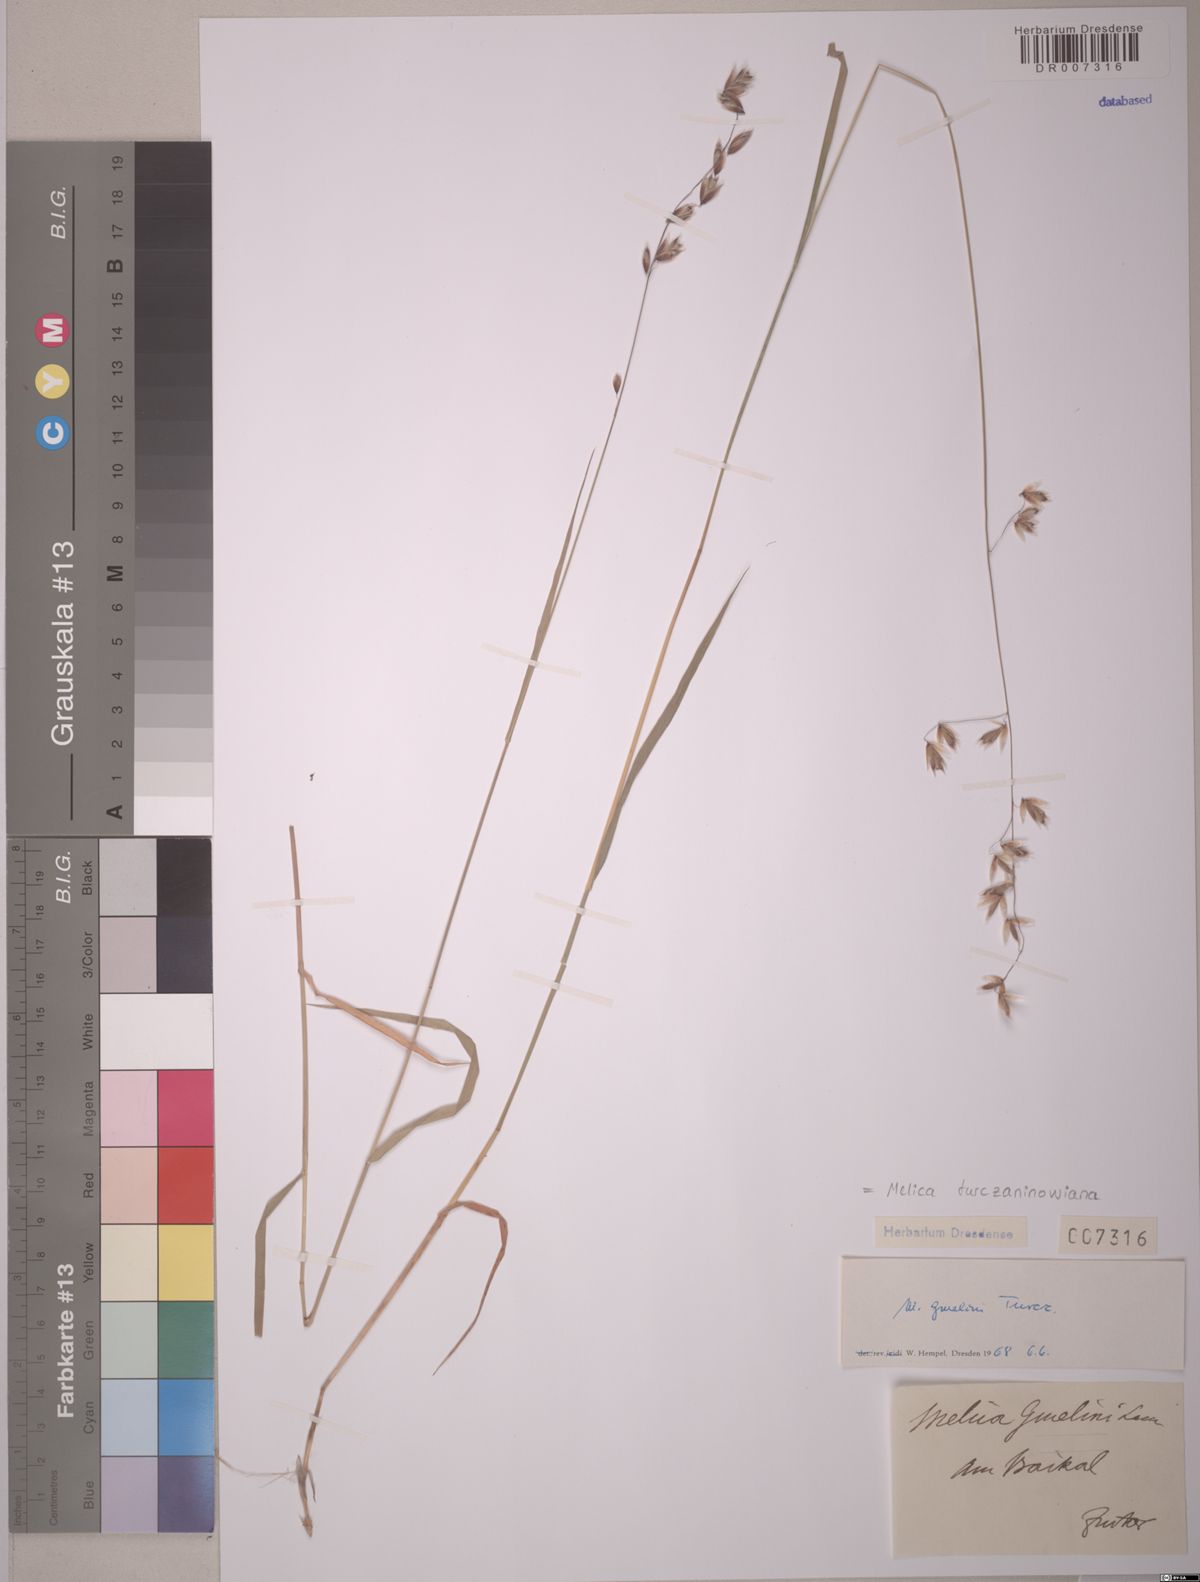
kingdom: Plantae
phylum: Tracheophyta
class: Liliopsida
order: Poales
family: Poaceae
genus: Melica
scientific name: Melica turczaninowiana
